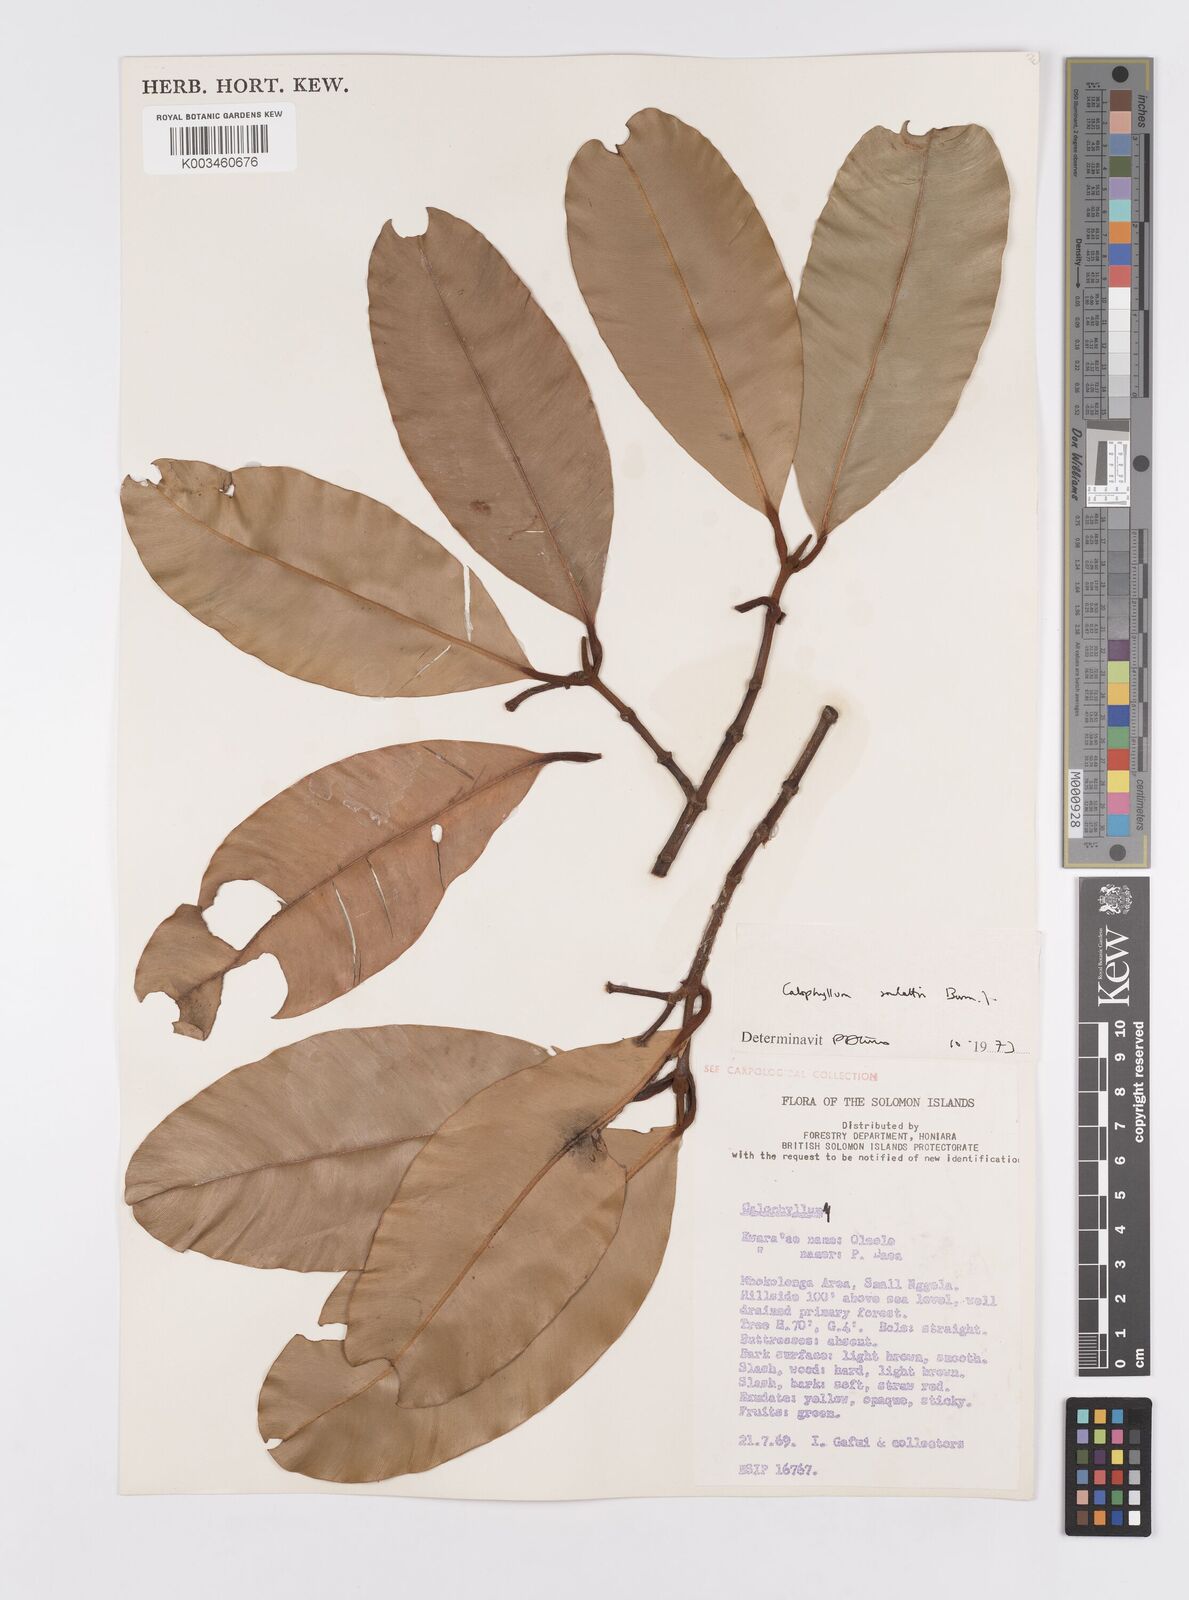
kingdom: Plantae
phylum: Tracheophyta
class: Magnoliopsida
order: Malpighiales
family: Calophyllaceae
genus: Calophyllum
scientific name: Calophyllum soulattri
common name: Bitangoor boonot
